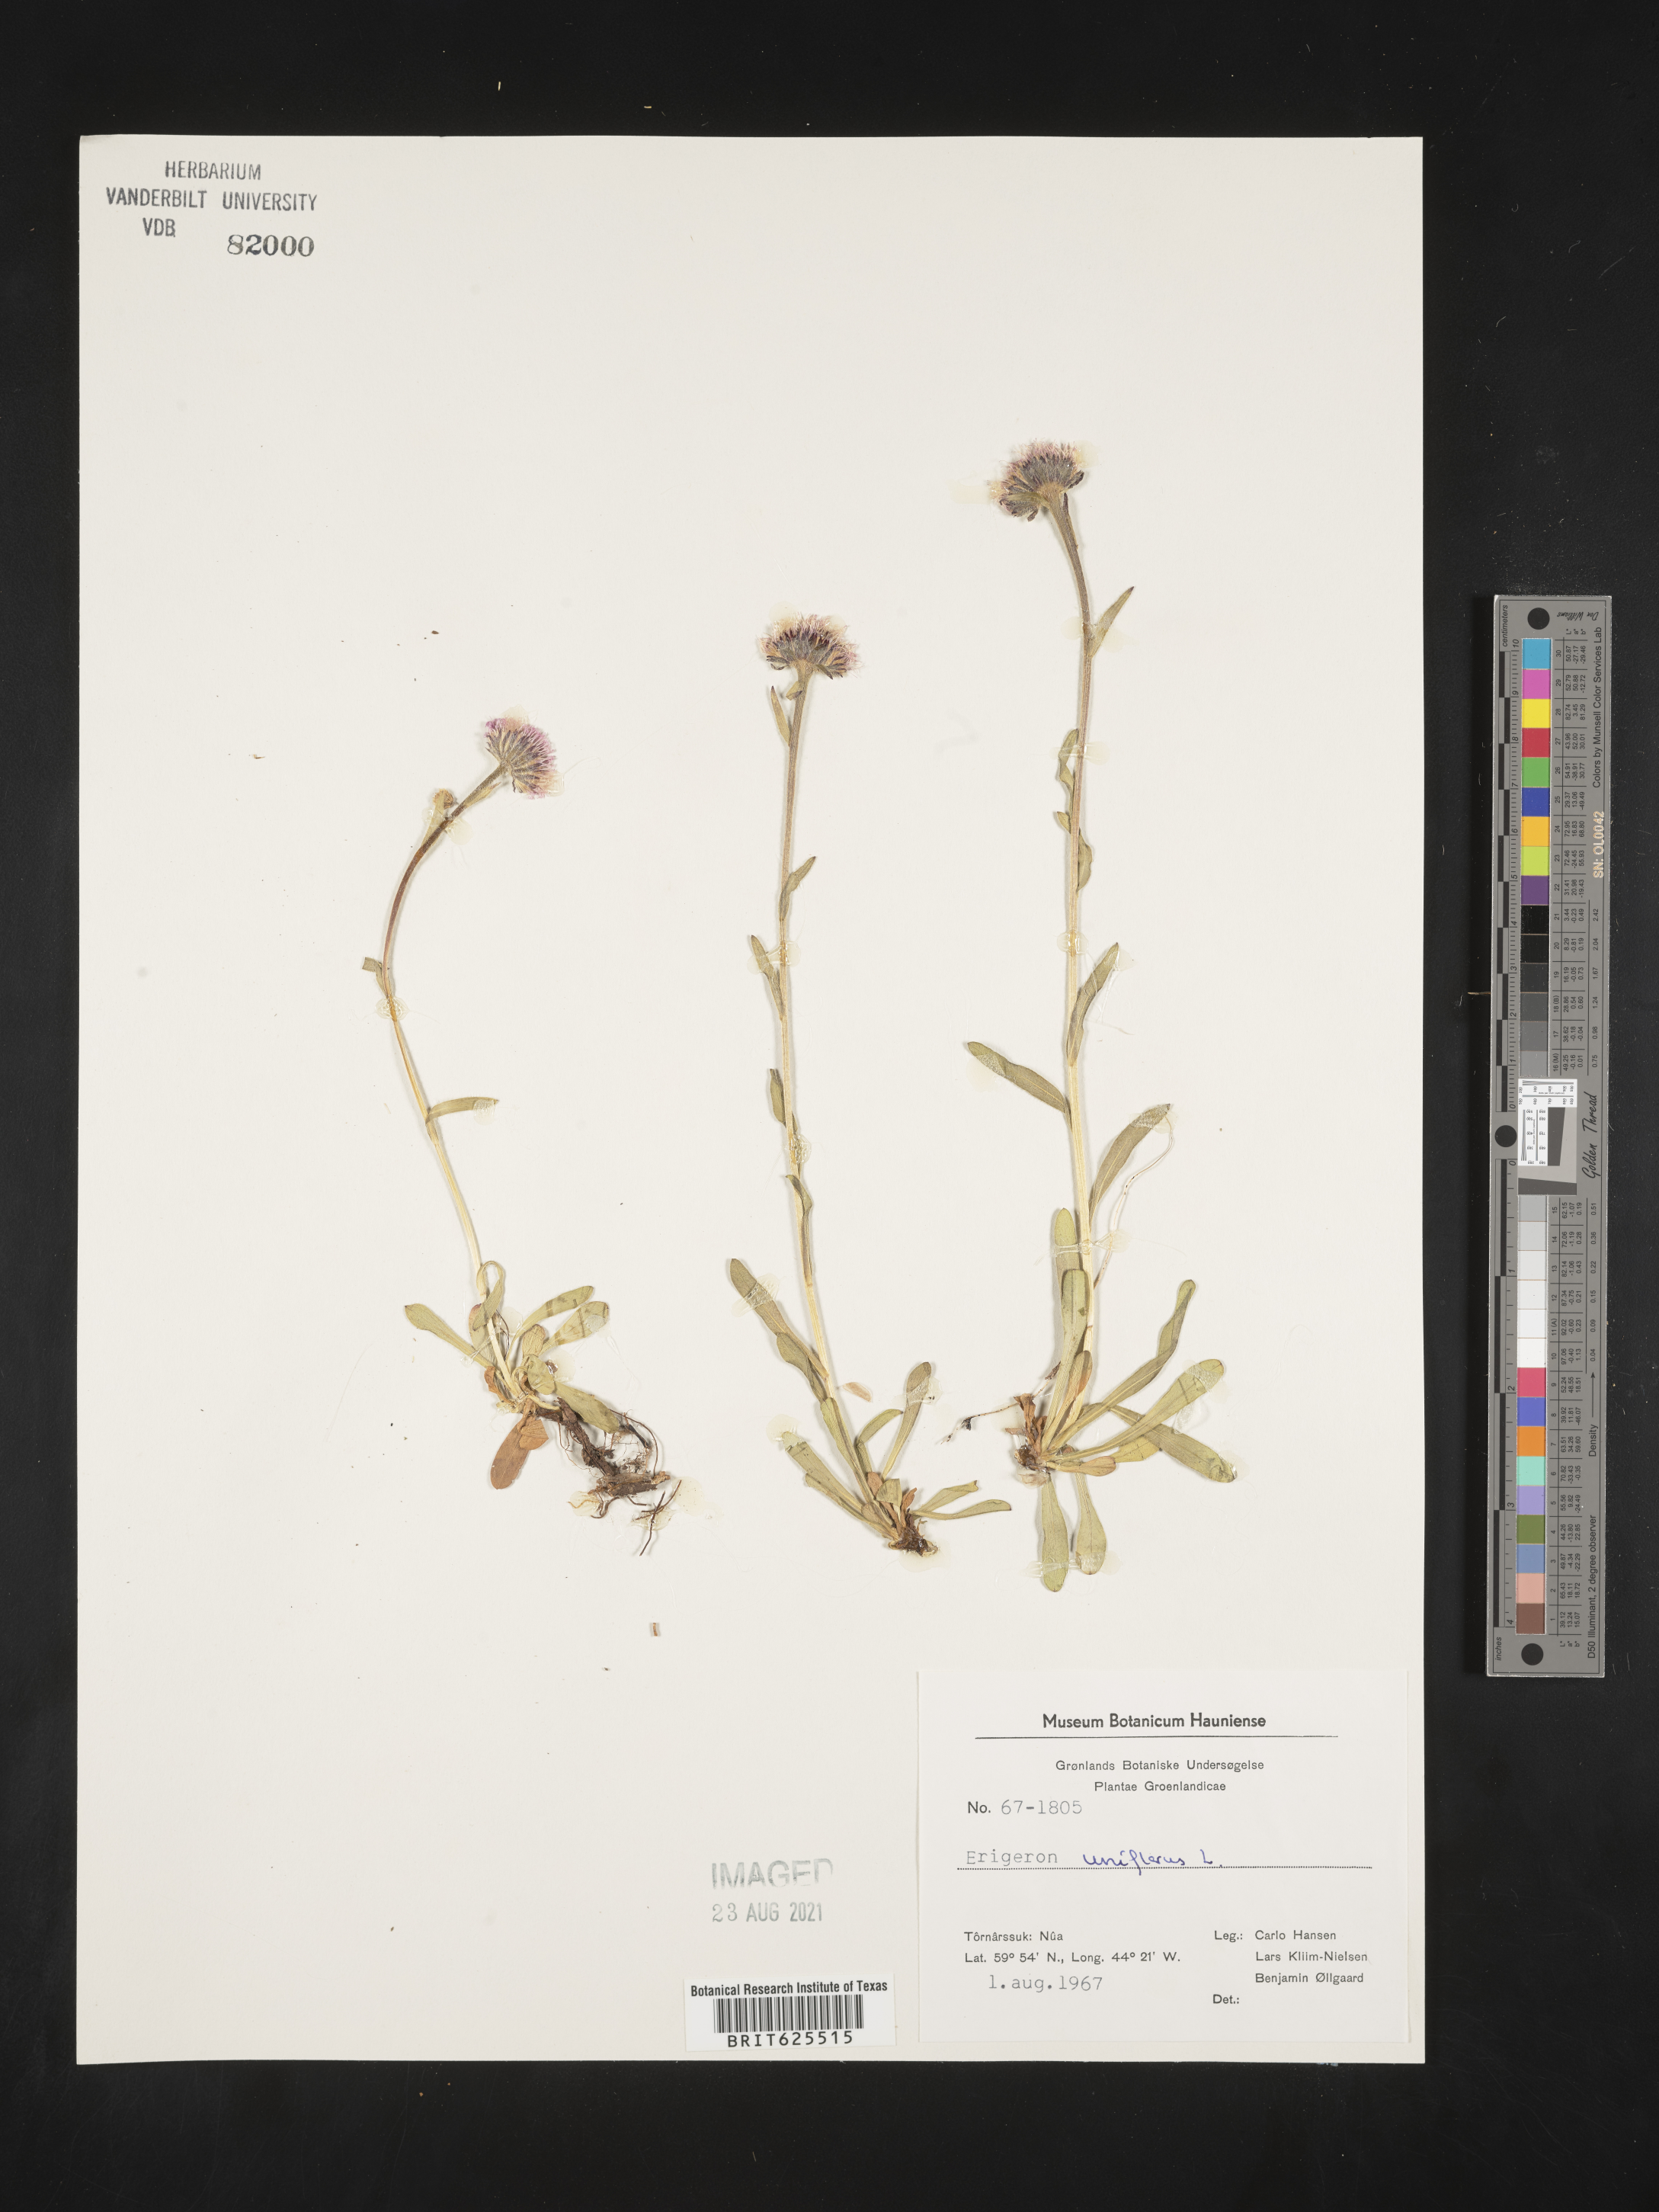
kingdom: Plantae
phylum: Tracheophyta
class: Magnoliopsida
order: Asterales
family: Asteraceae
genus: Erigeron
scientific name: Erigeron pulchellus
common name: Hairy fleabane
